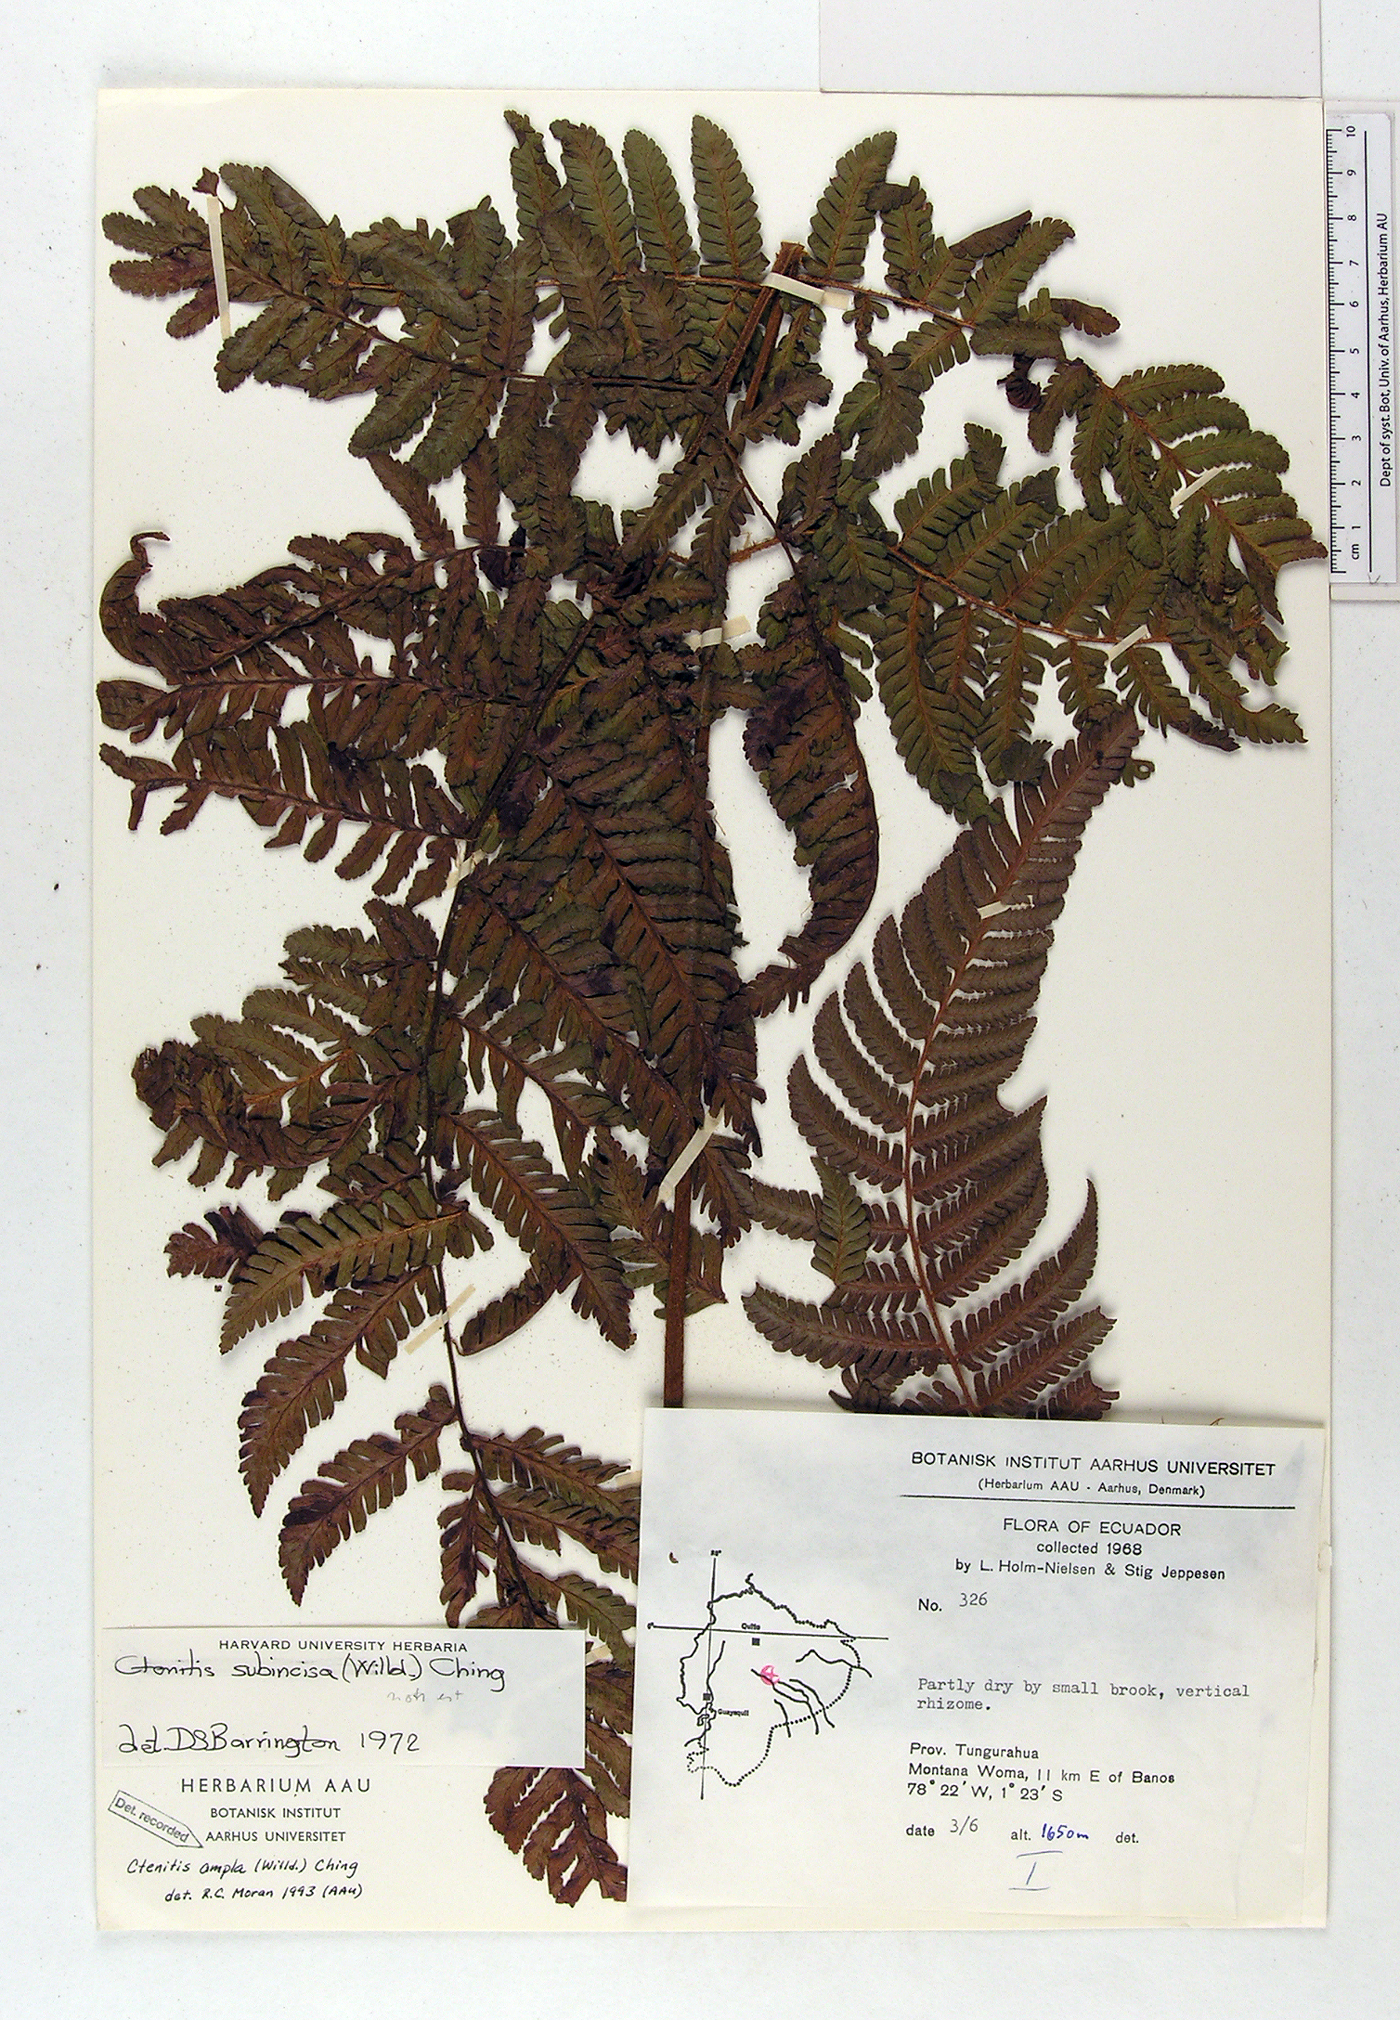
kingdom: Plantae
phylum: Tracheophyta
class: Polypodiopsida
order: Polypodiales
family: Dryopteridaceae
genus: Ctenitis
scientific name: Ctenitis sloanei
